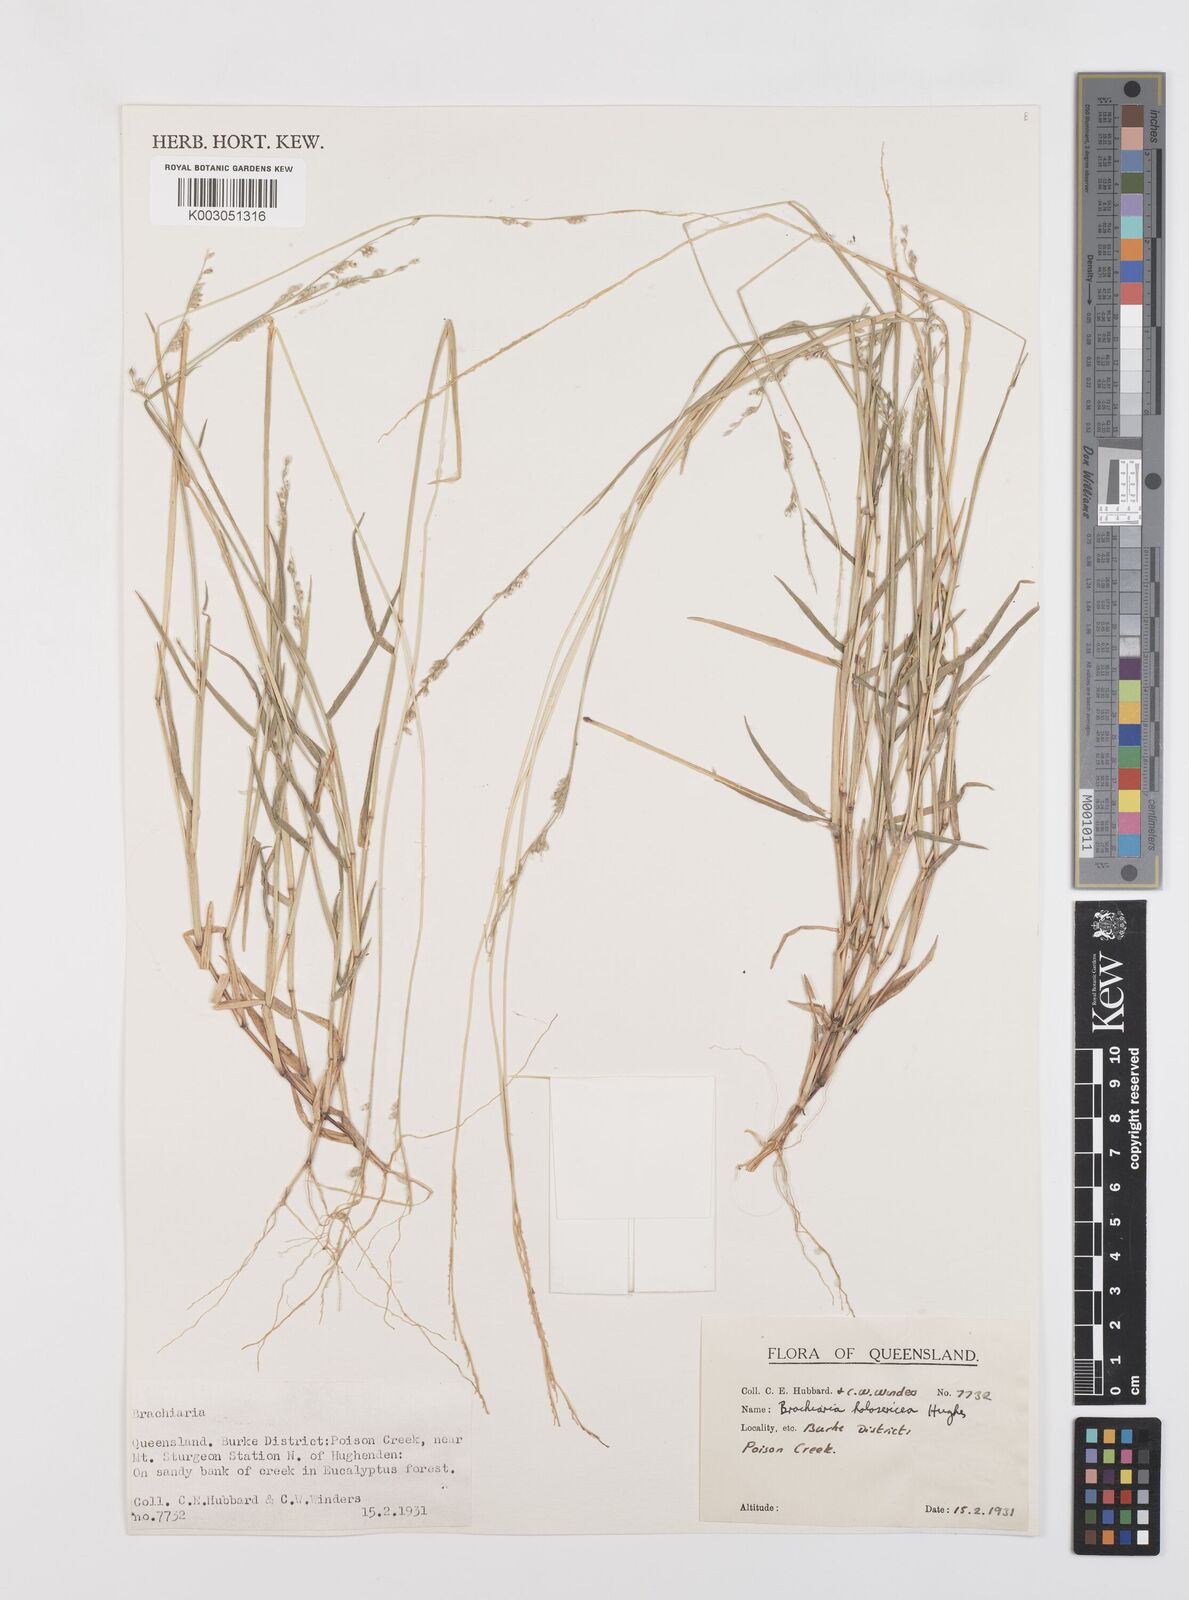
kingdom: Plantae
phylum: Tracheophyta
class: Liliopsida
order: Poales
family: Poaceae
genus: Urochloa
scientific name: Urochloa holosericea
